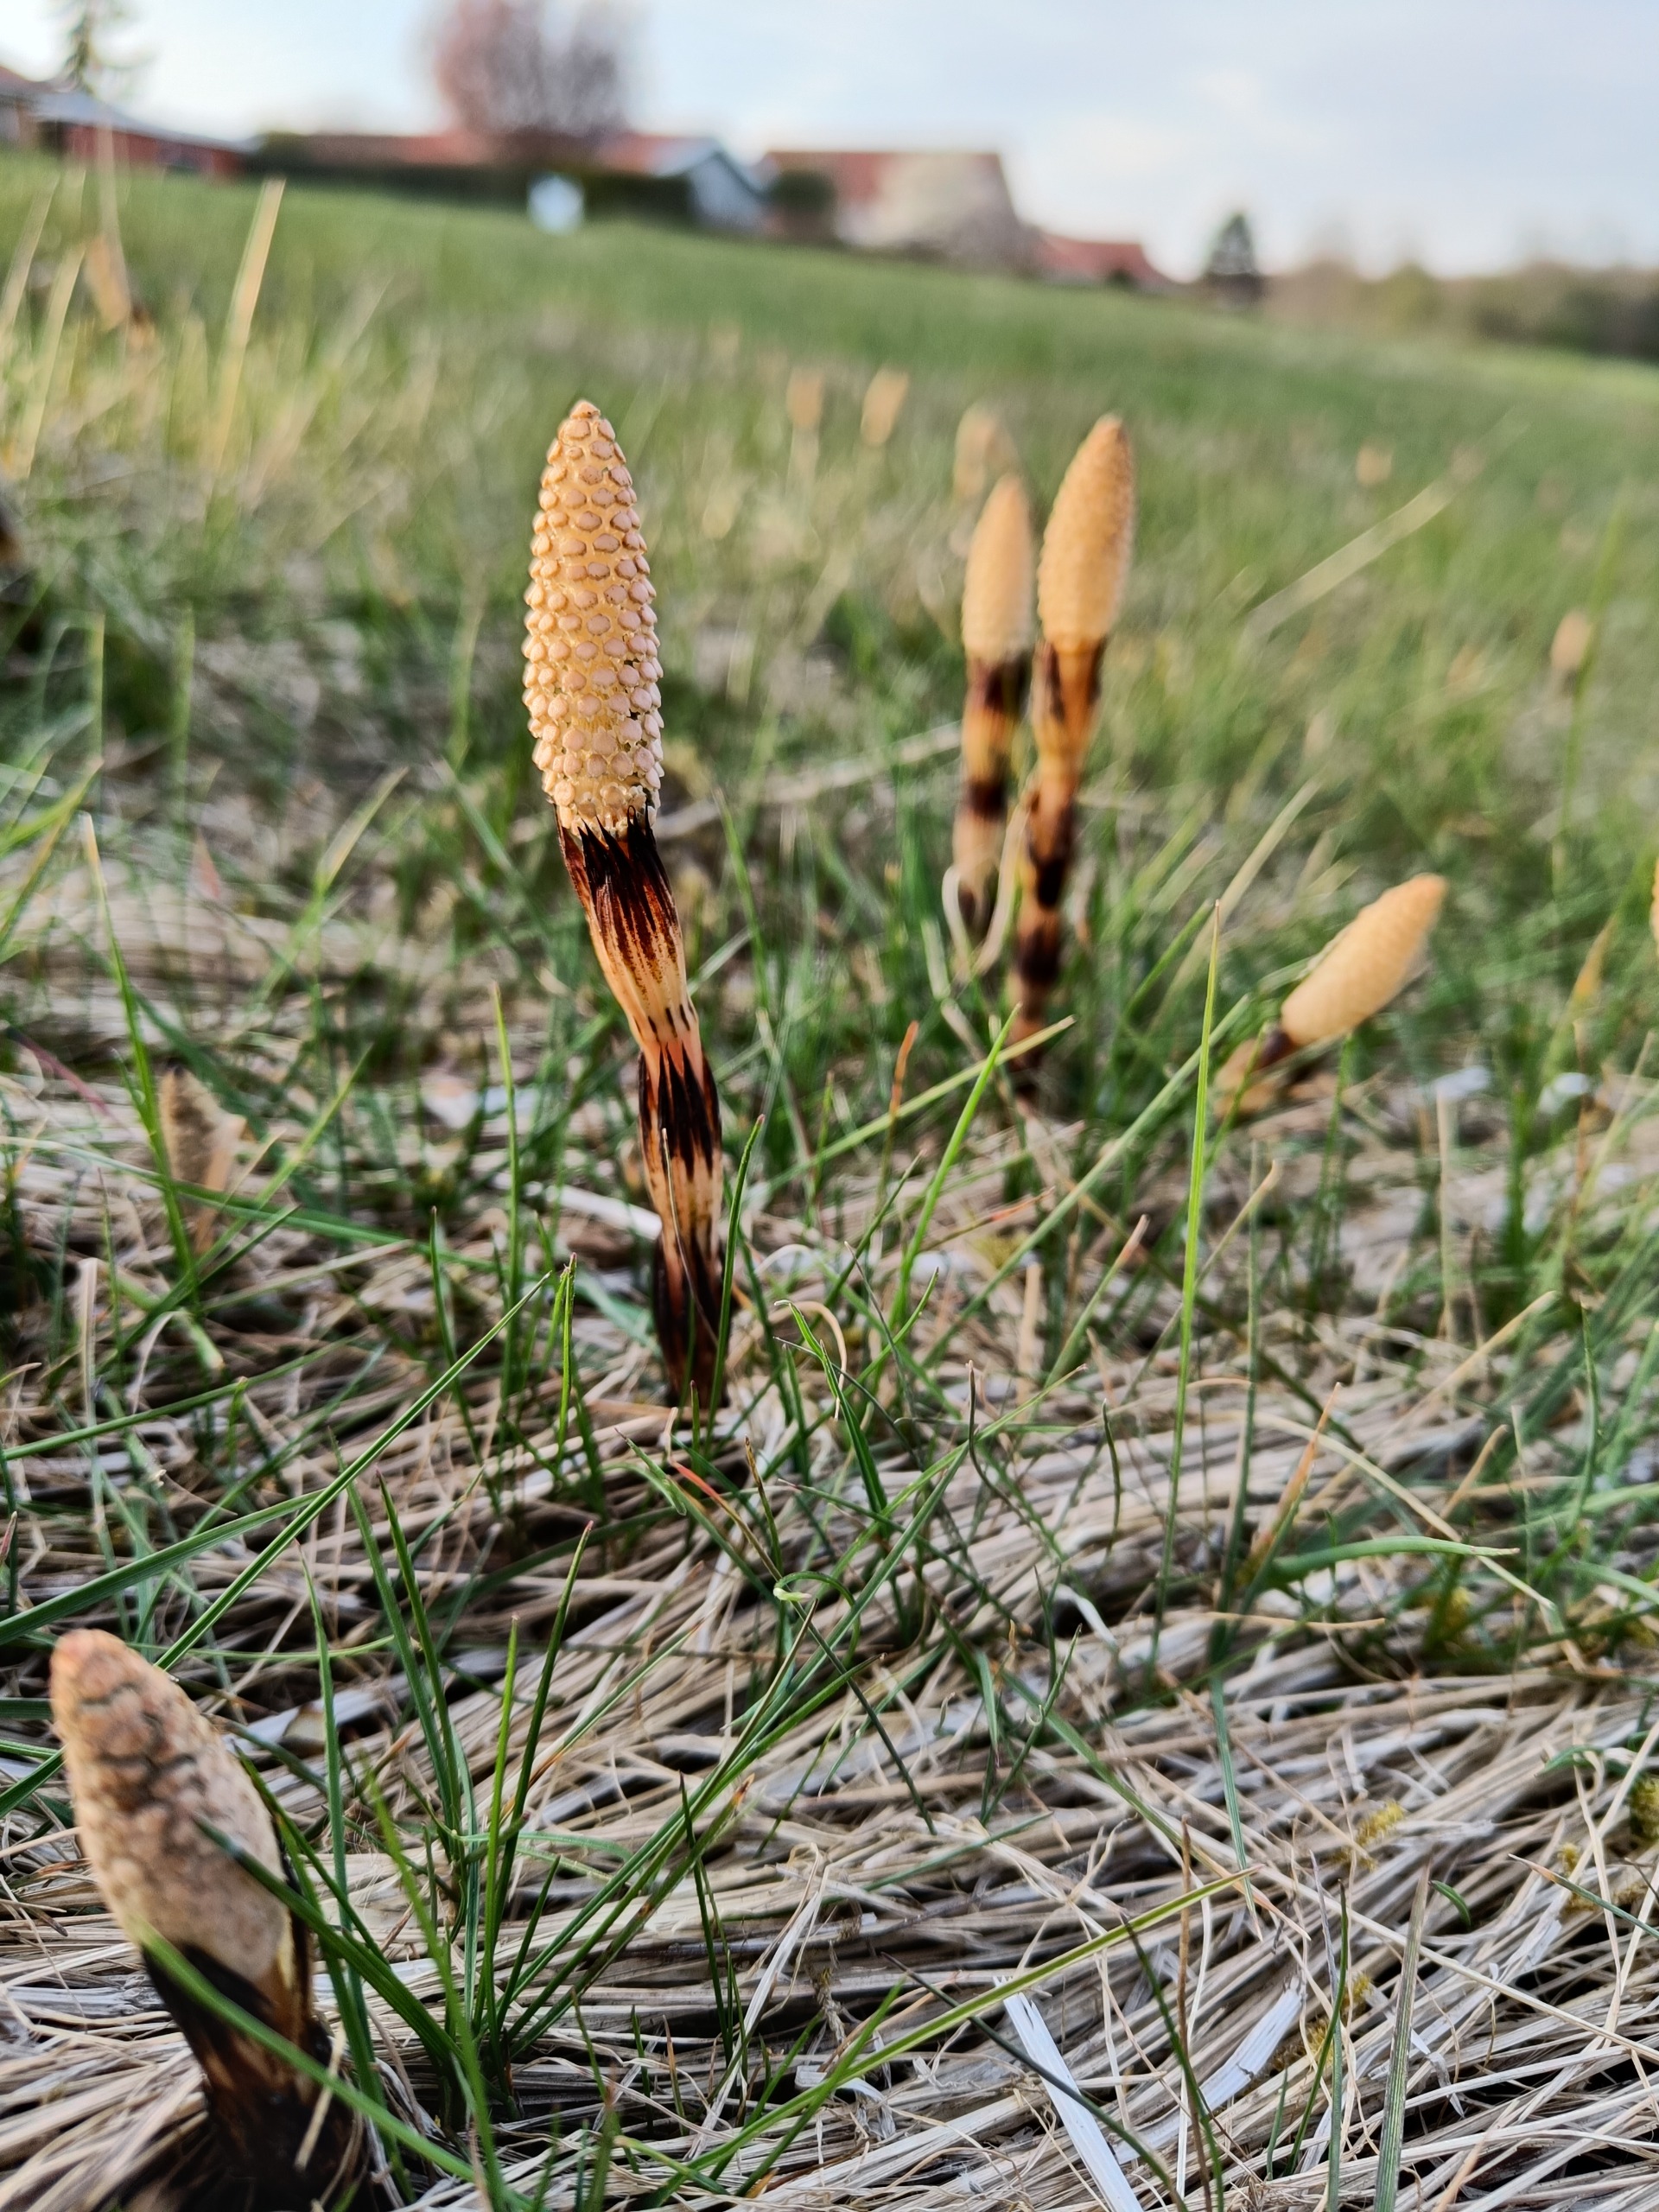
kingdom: Plantae
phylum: Tracheophyta
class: Polypodiopsida
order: Equisetales
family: Equisetaceae
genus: Equisetum
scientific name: Equisetum arvense
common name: Ager-padderok
